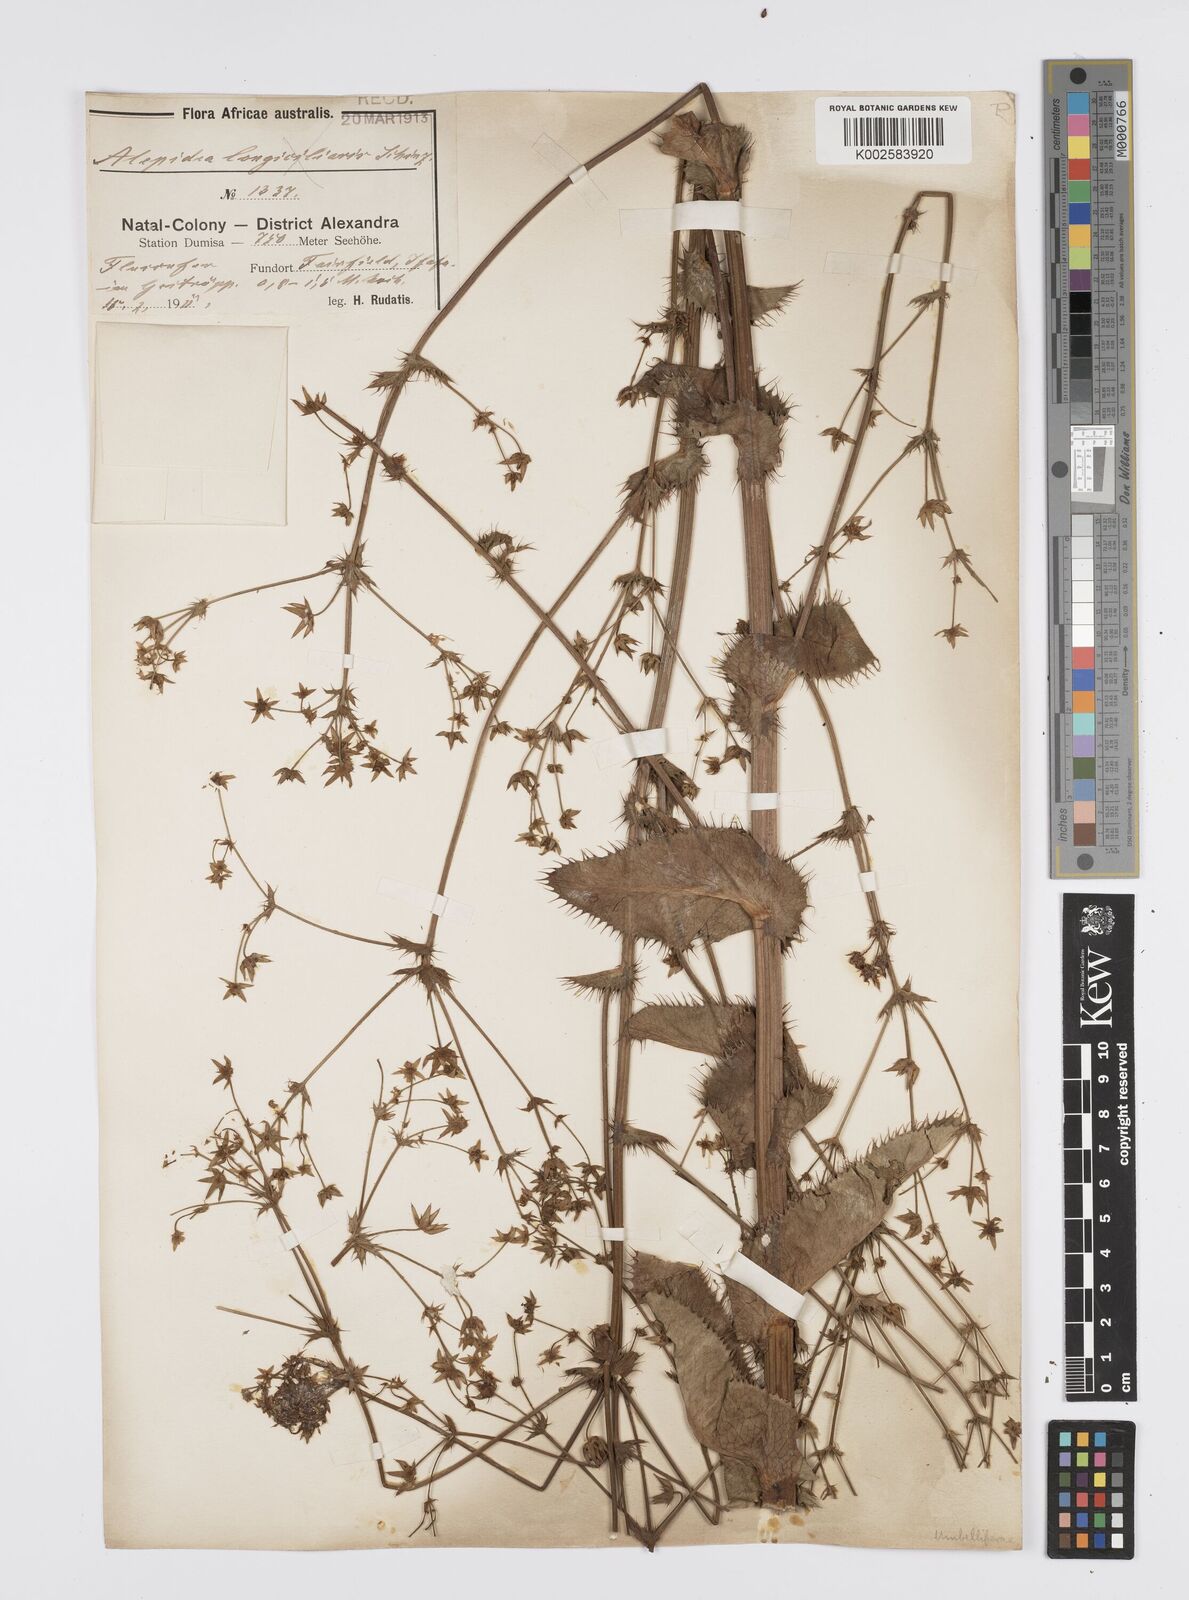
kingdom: Plantae
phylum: Tracheophyta
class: Magnoliopsida
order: Apiales
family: Apiaceae
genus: Alepidea
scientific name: Alepidea amatymbica
